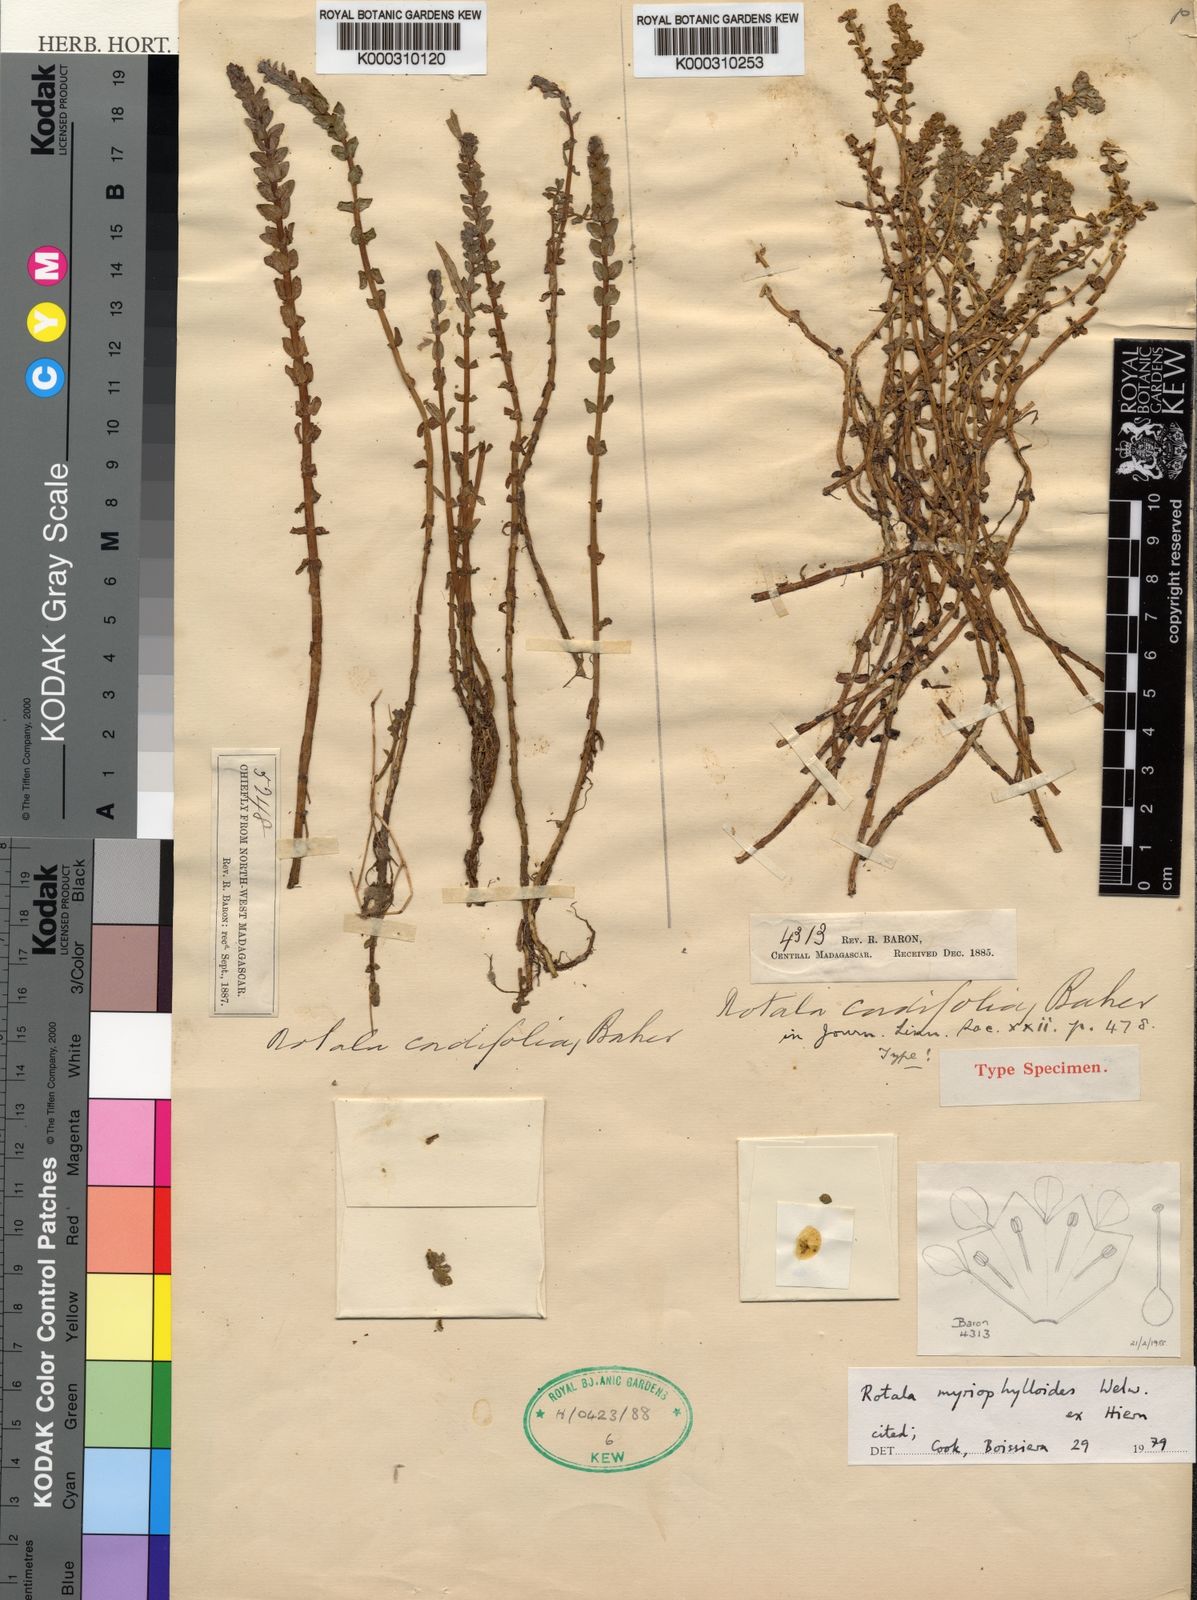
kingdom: Plantae
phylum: Tracheophyta
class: Magnoliopsida
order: Myrtales
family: Lythraceae
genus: Rotala
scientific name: Rotala myriophylloides
